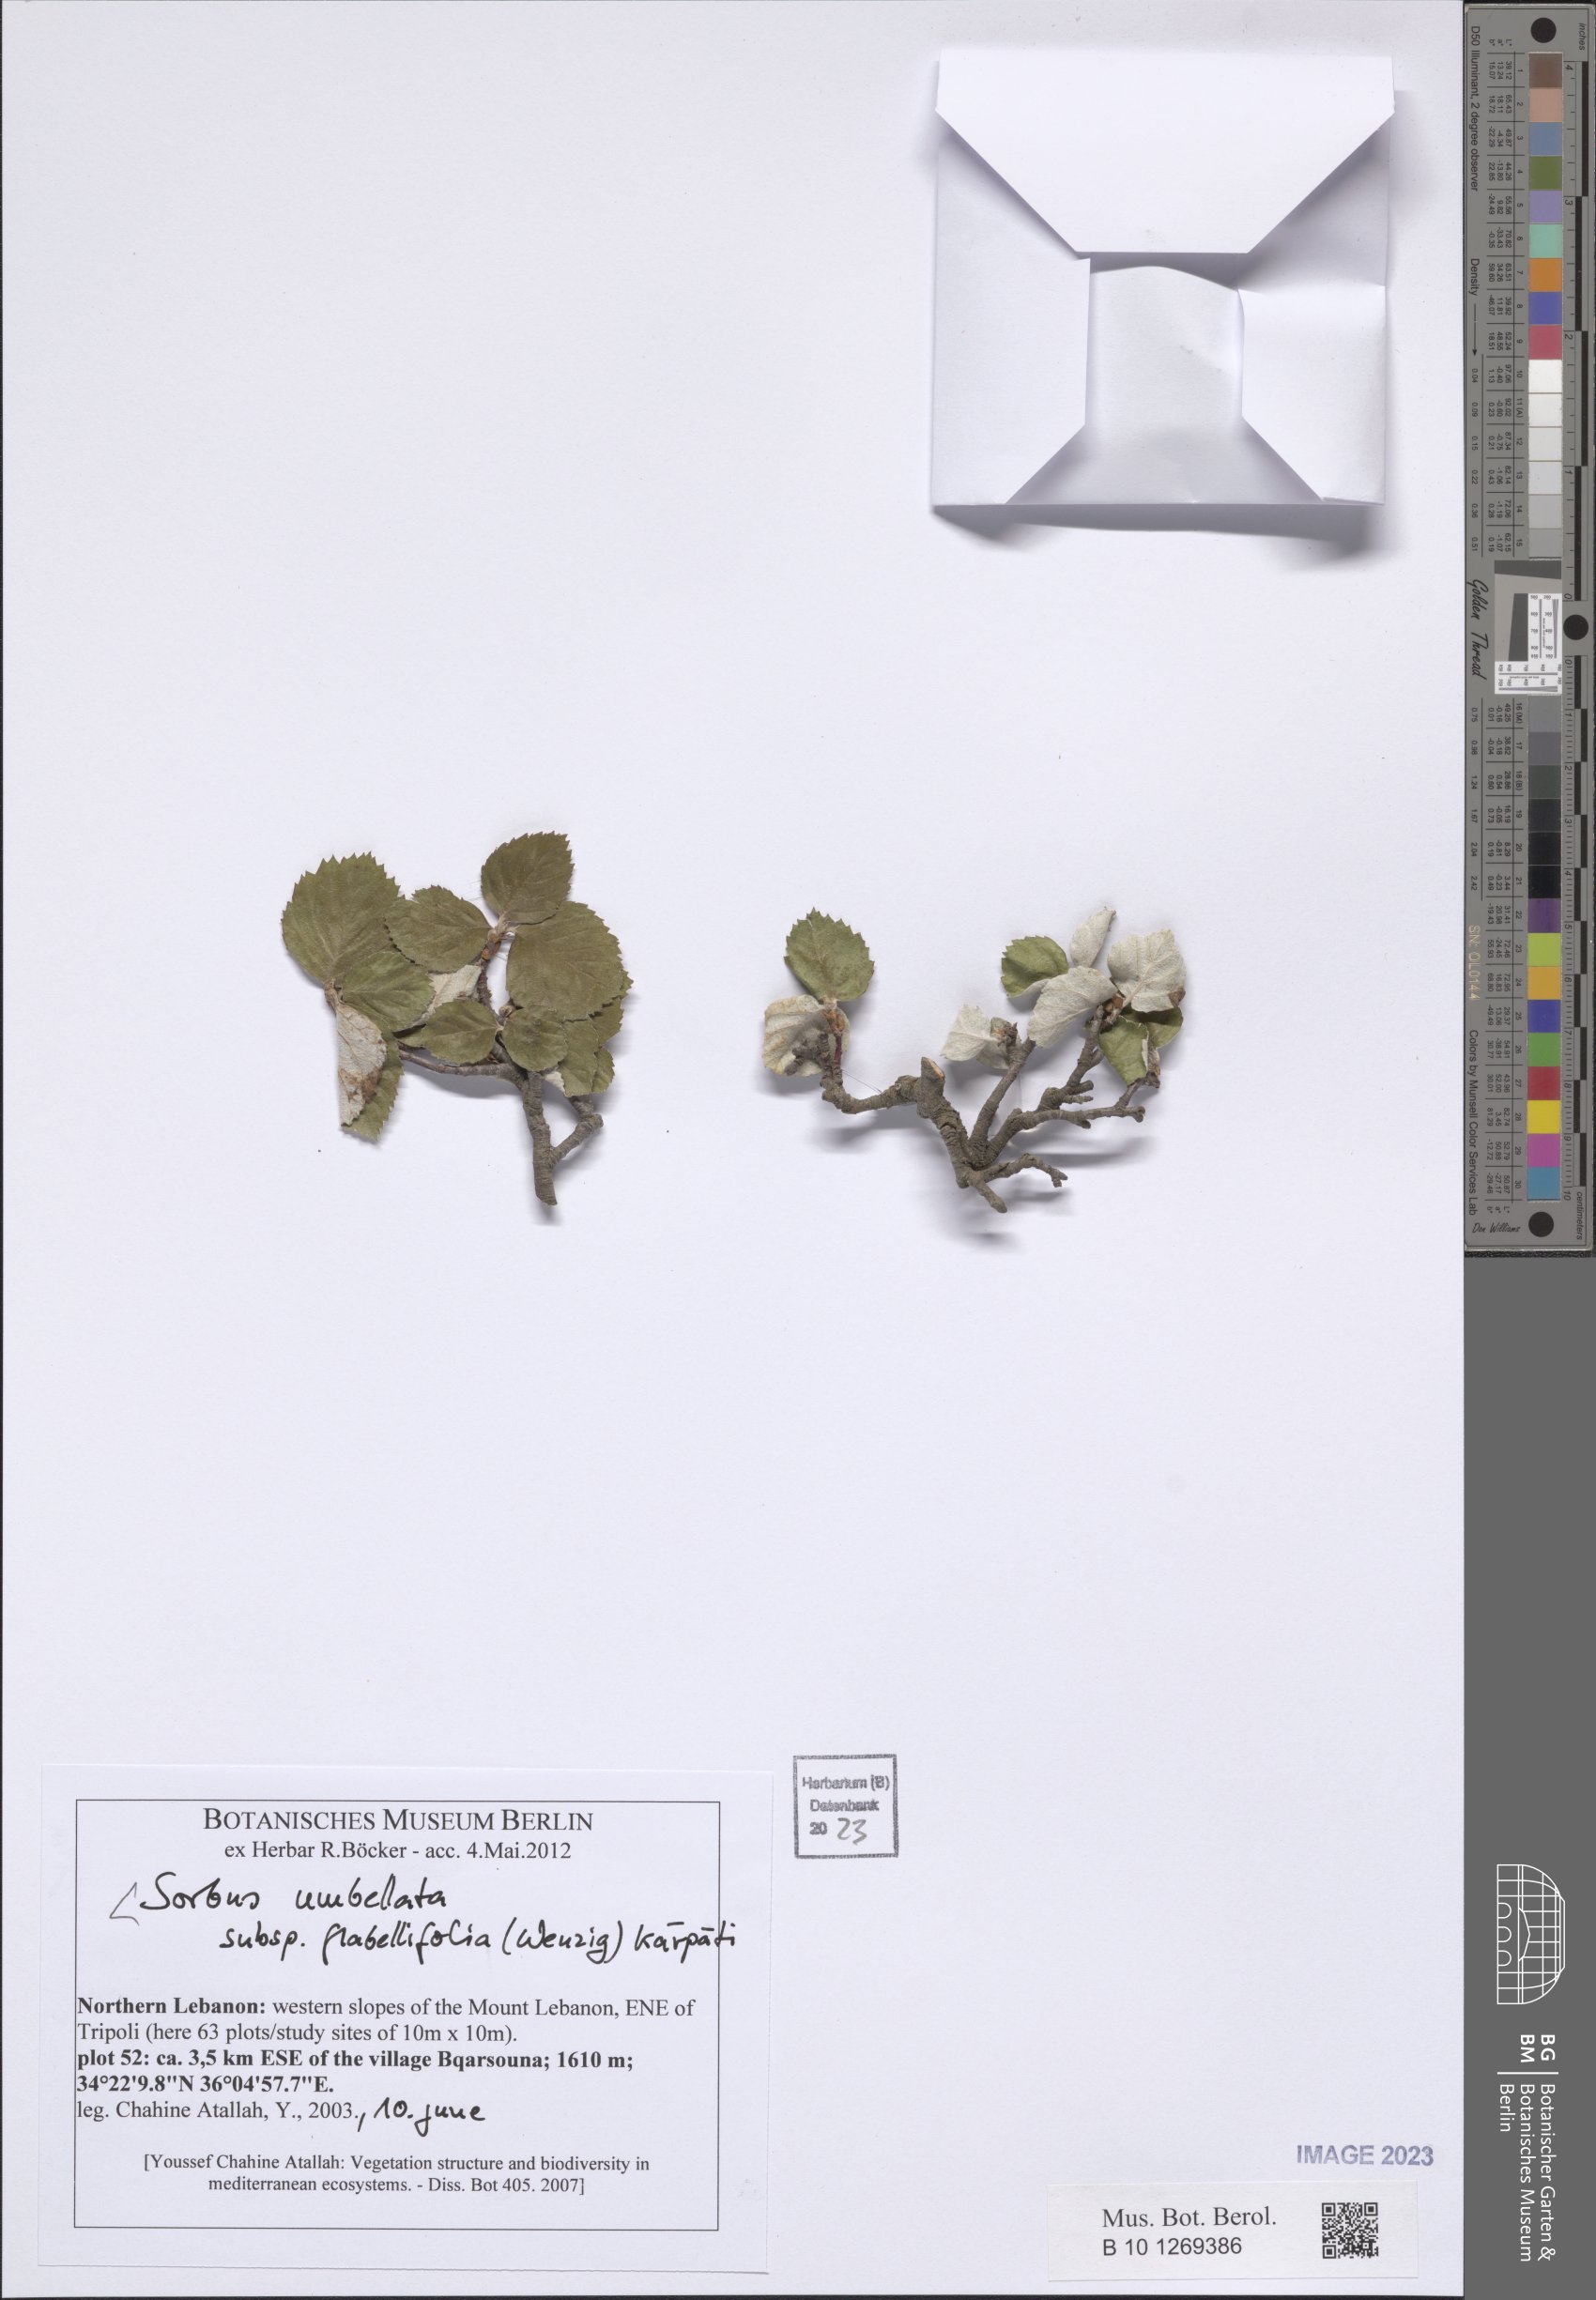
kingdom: Plantae
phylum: Tracheophyta
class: Magnoliopsida
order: Rosales
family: Rosaceae
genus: Aria
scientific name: Aria umbellata
